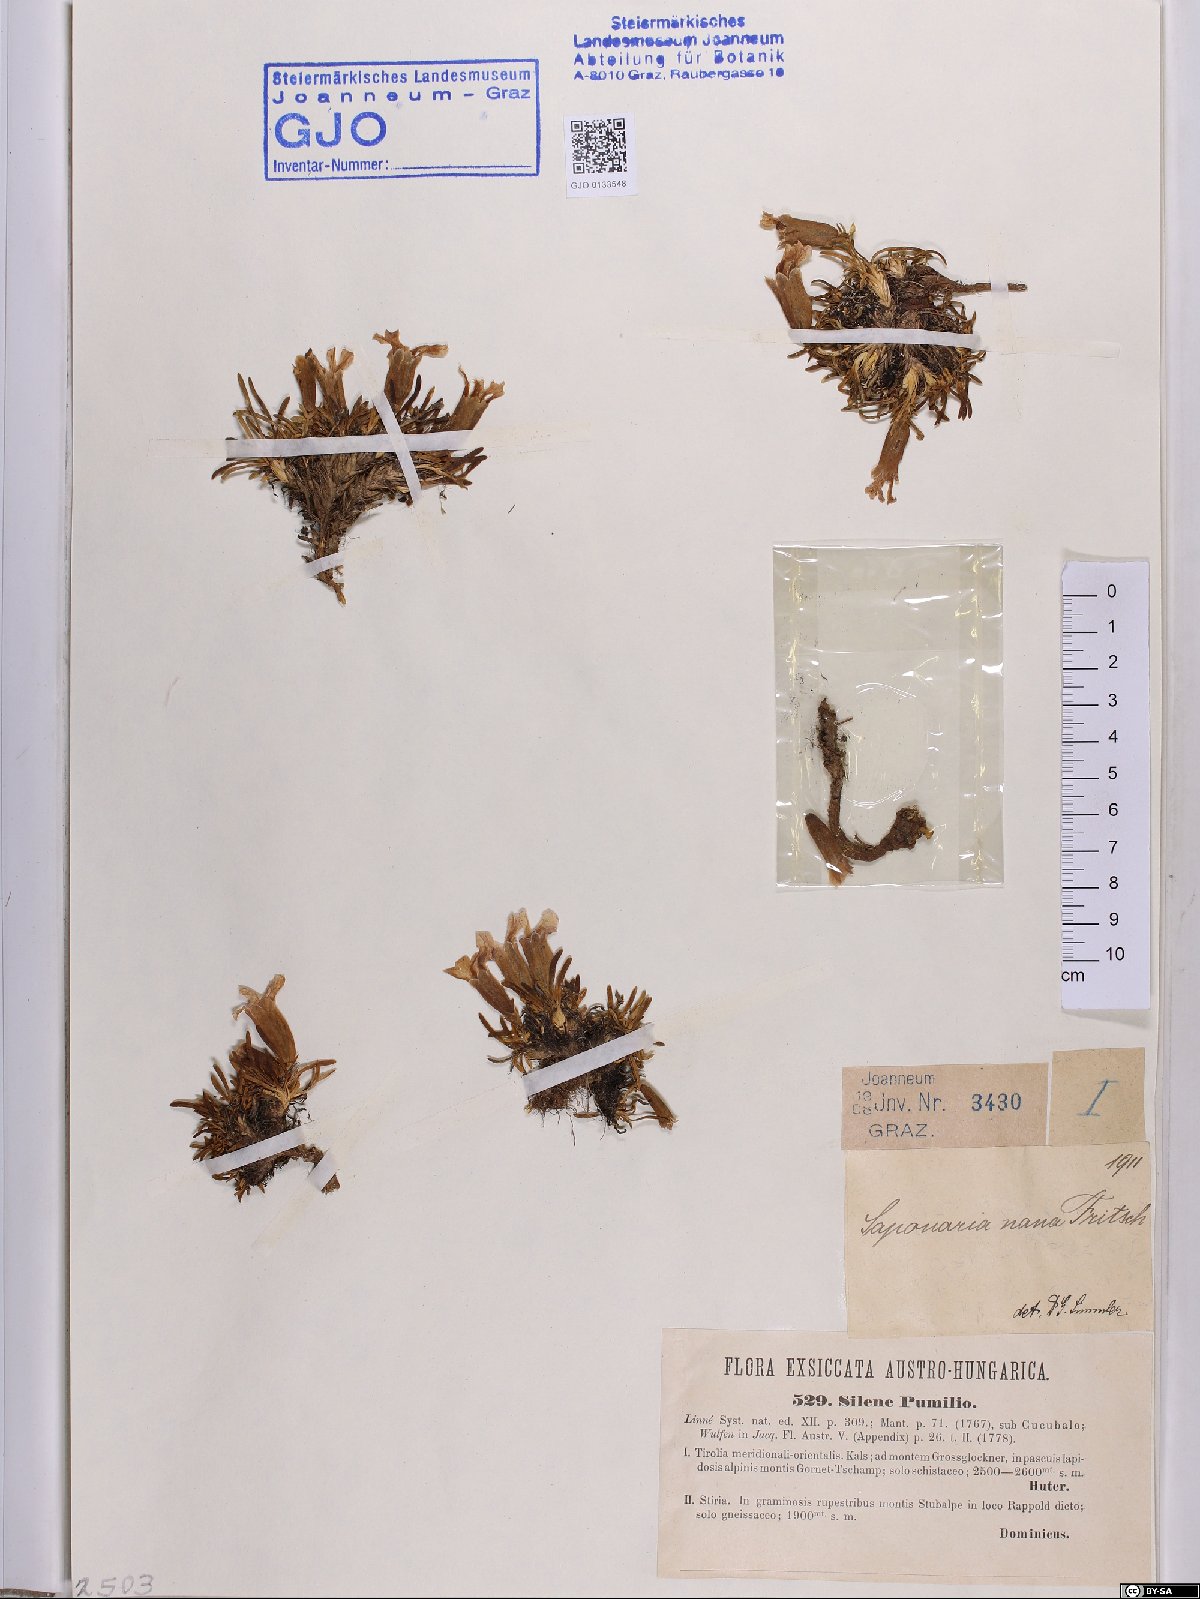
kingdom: Plantae
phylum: Tracheophyta
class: Magnoliopsida
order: Caryophyllales
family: Caryophyllaceae
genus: Saponaria
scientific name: Saponaria pumila
